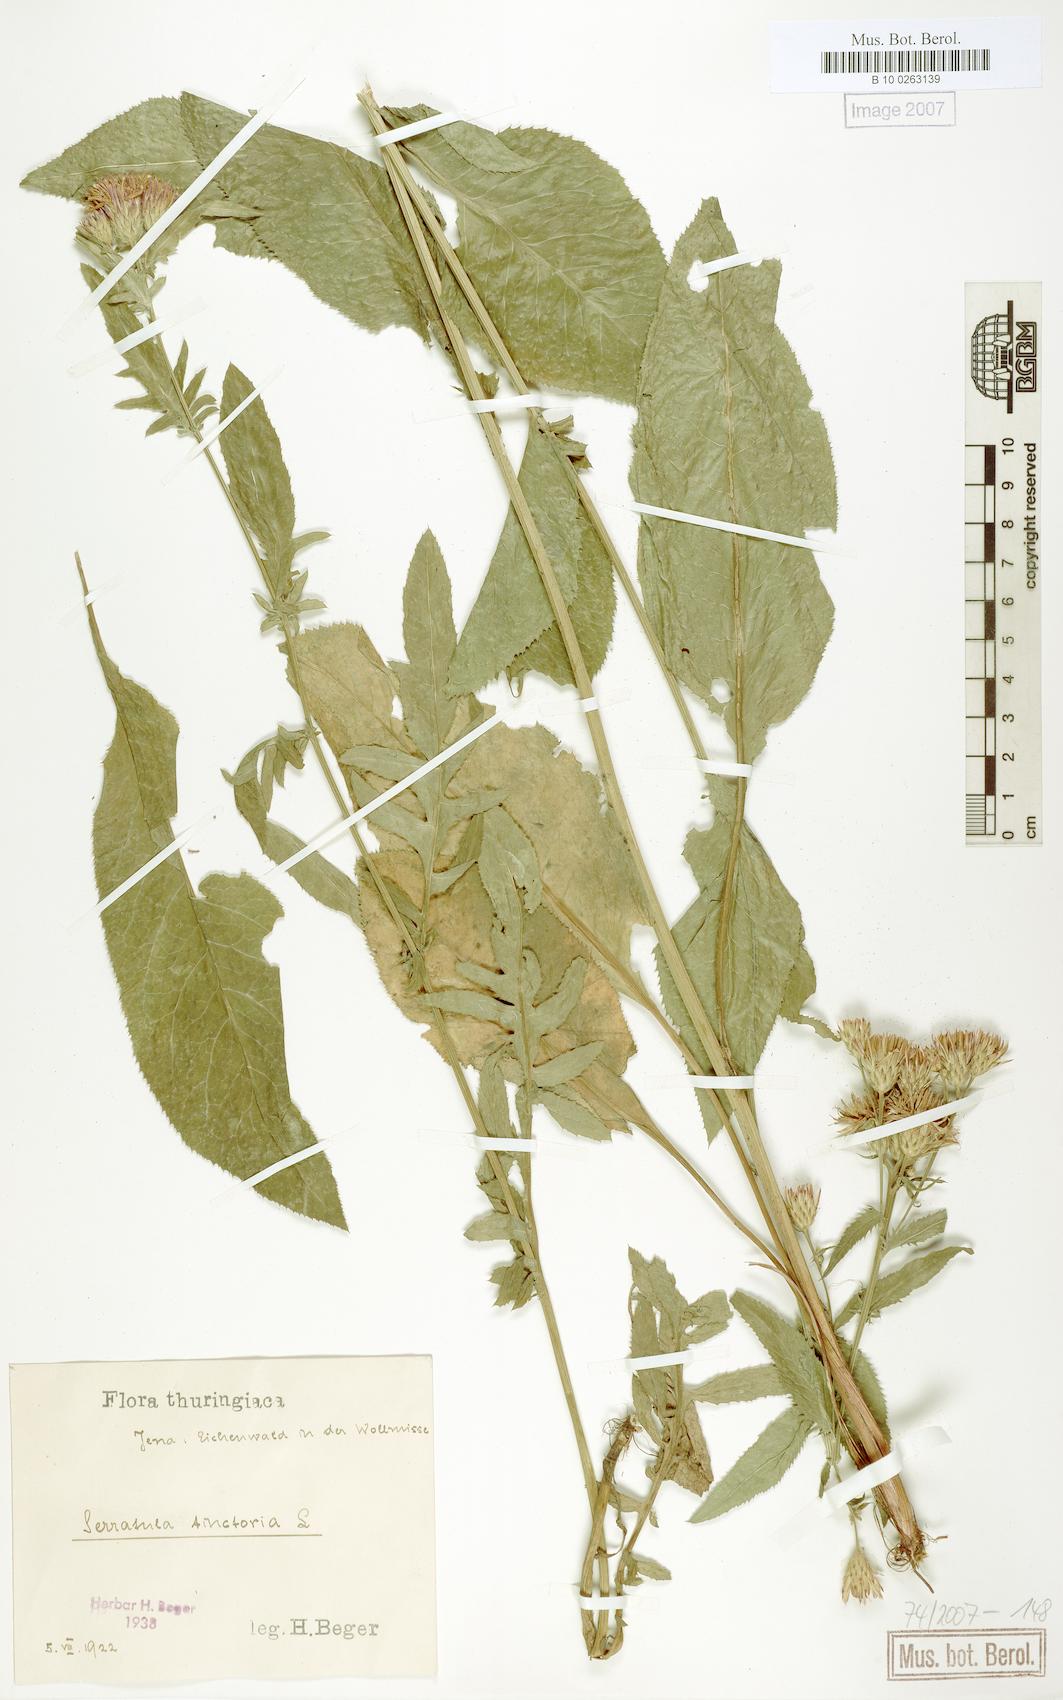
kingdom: Plantae
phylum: Tracheophyta
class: Magnoliopsida
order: Asterales
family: Asteraceae
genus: Serratula
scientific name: Serratula tinctoria
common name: Saw-wort
